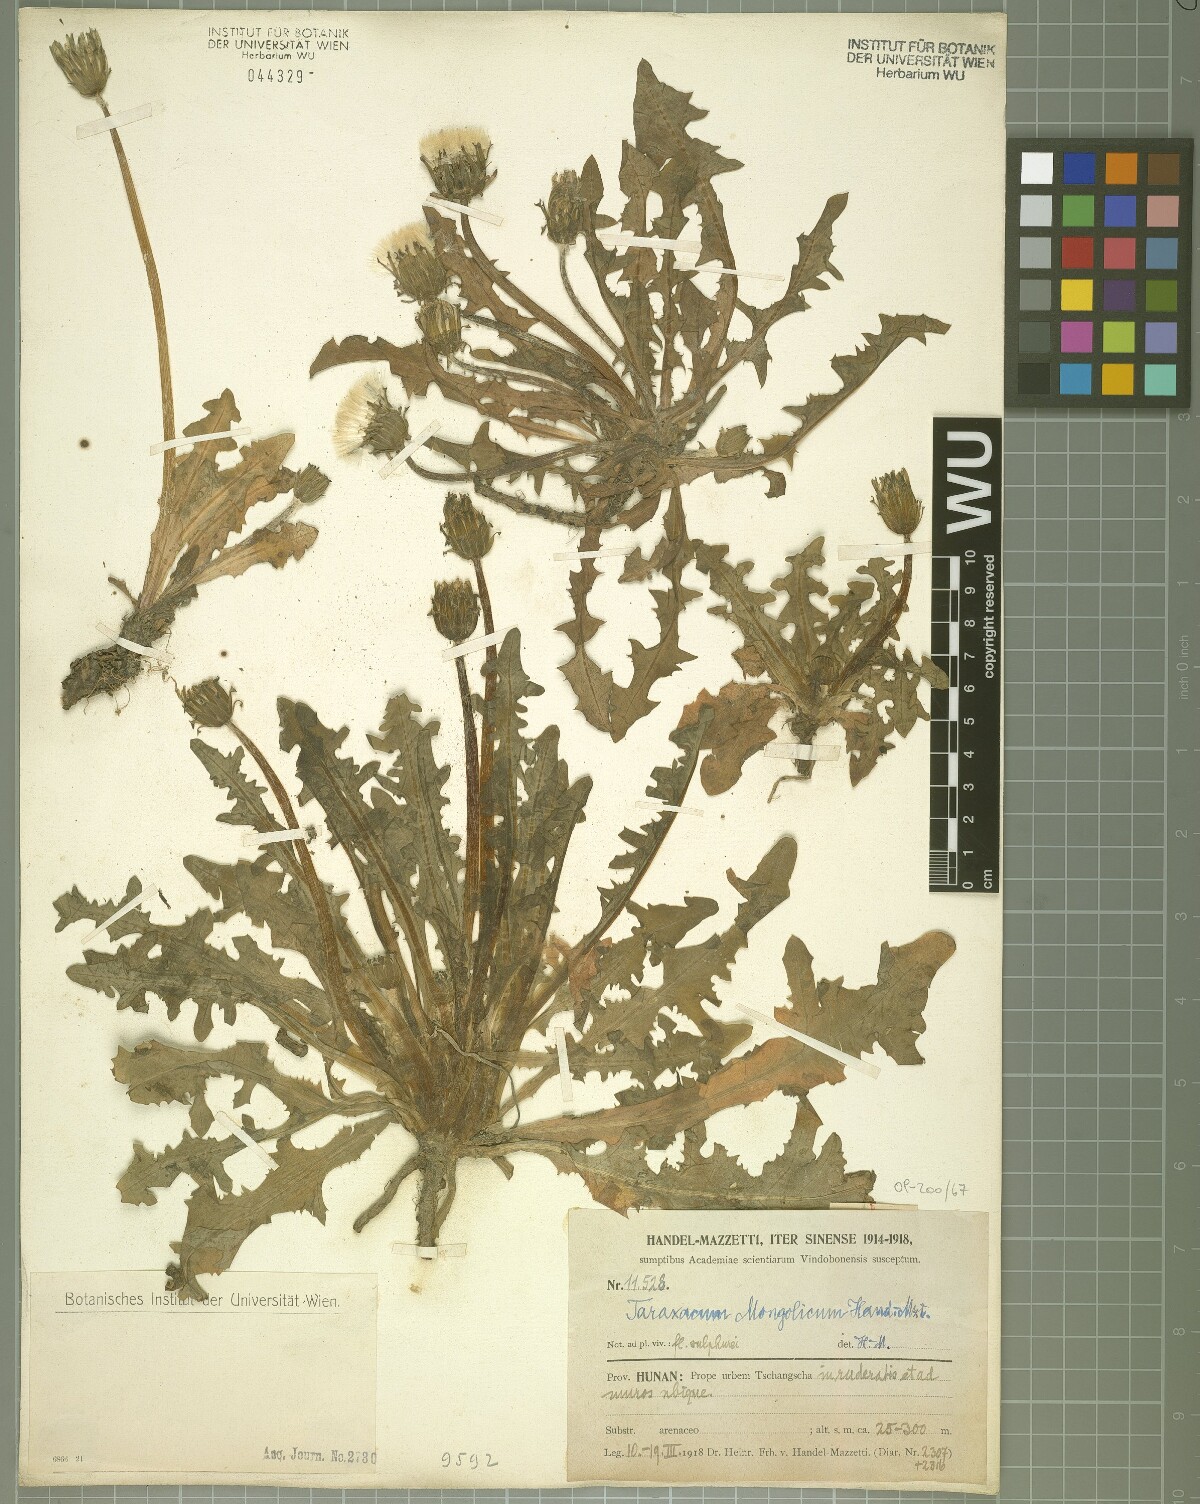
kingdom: Plantae
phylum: Tracheophyta
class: Magnoliopsida
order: Asterales
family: Asteraceae
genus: Taraxacum
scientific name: Taraxacum mongolicum
